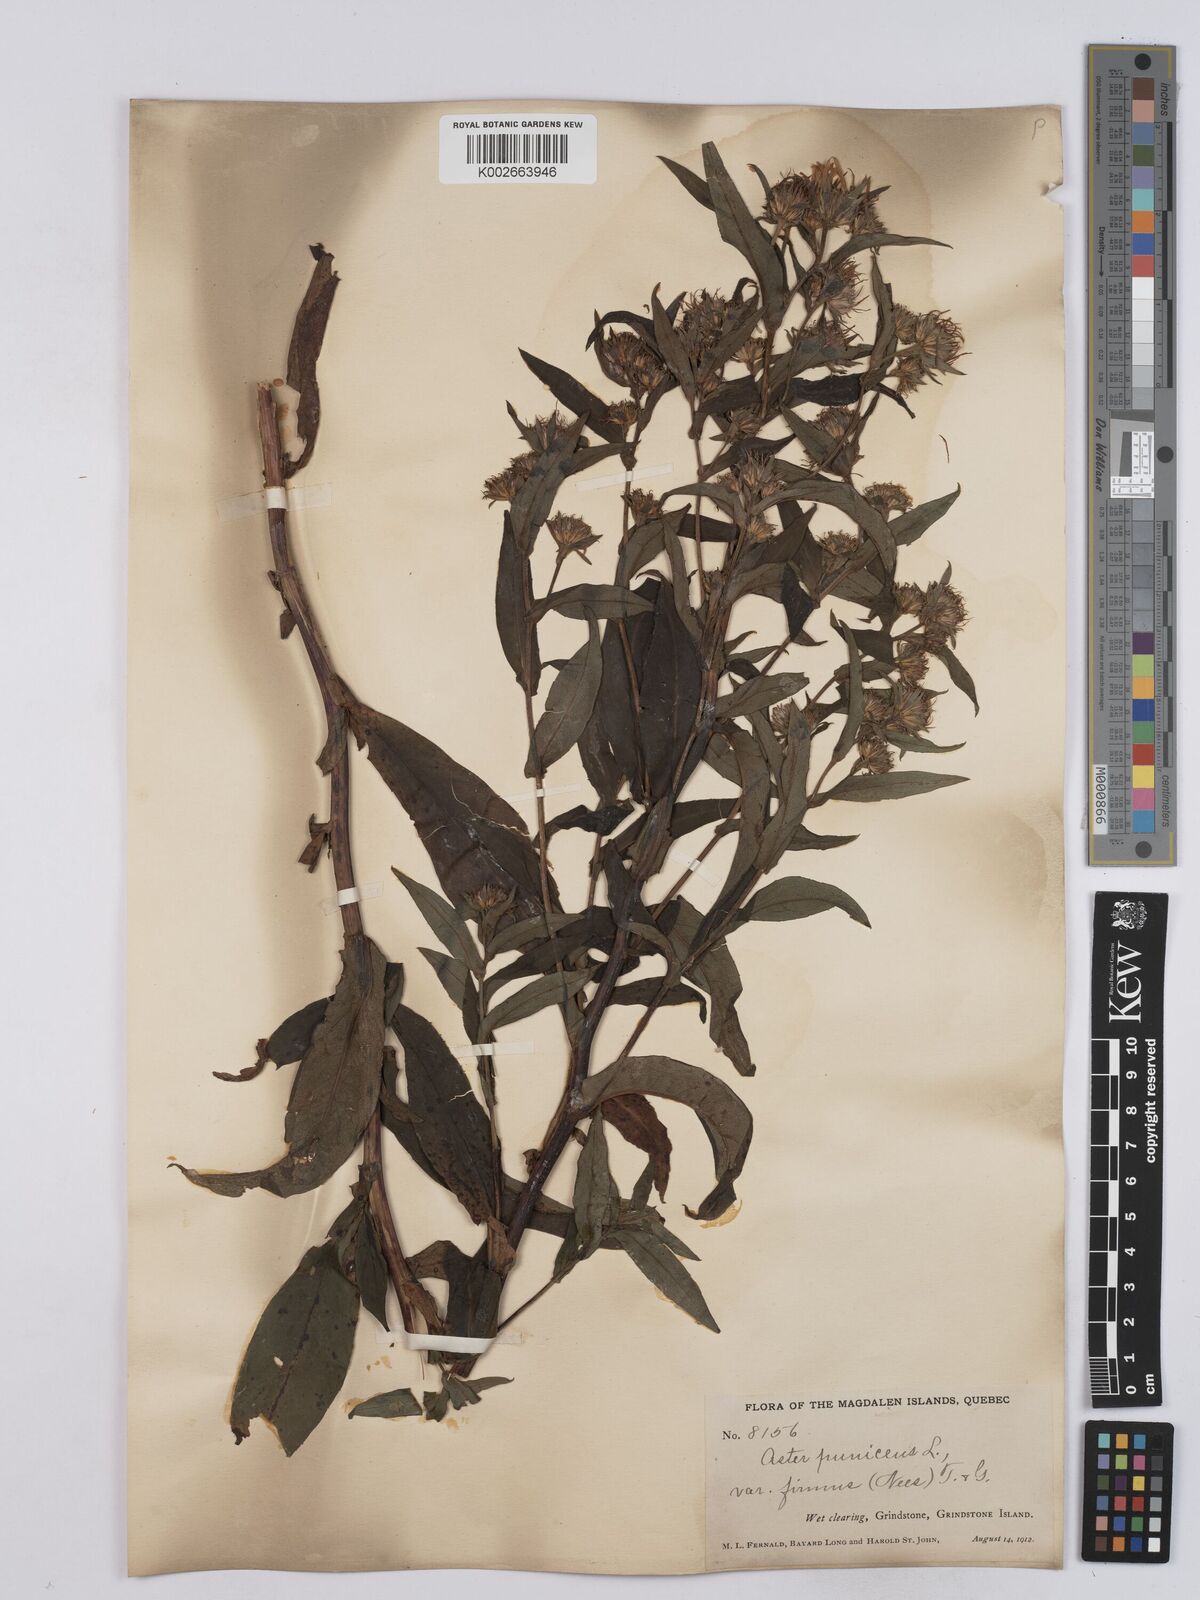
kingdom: Plantae
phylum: Tracheophyta
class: Magnoliopsida
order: Asterales
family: Asteraceae
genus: Symphyotrichum
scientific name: Symphyotrichum puniceum
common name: Bog aster
